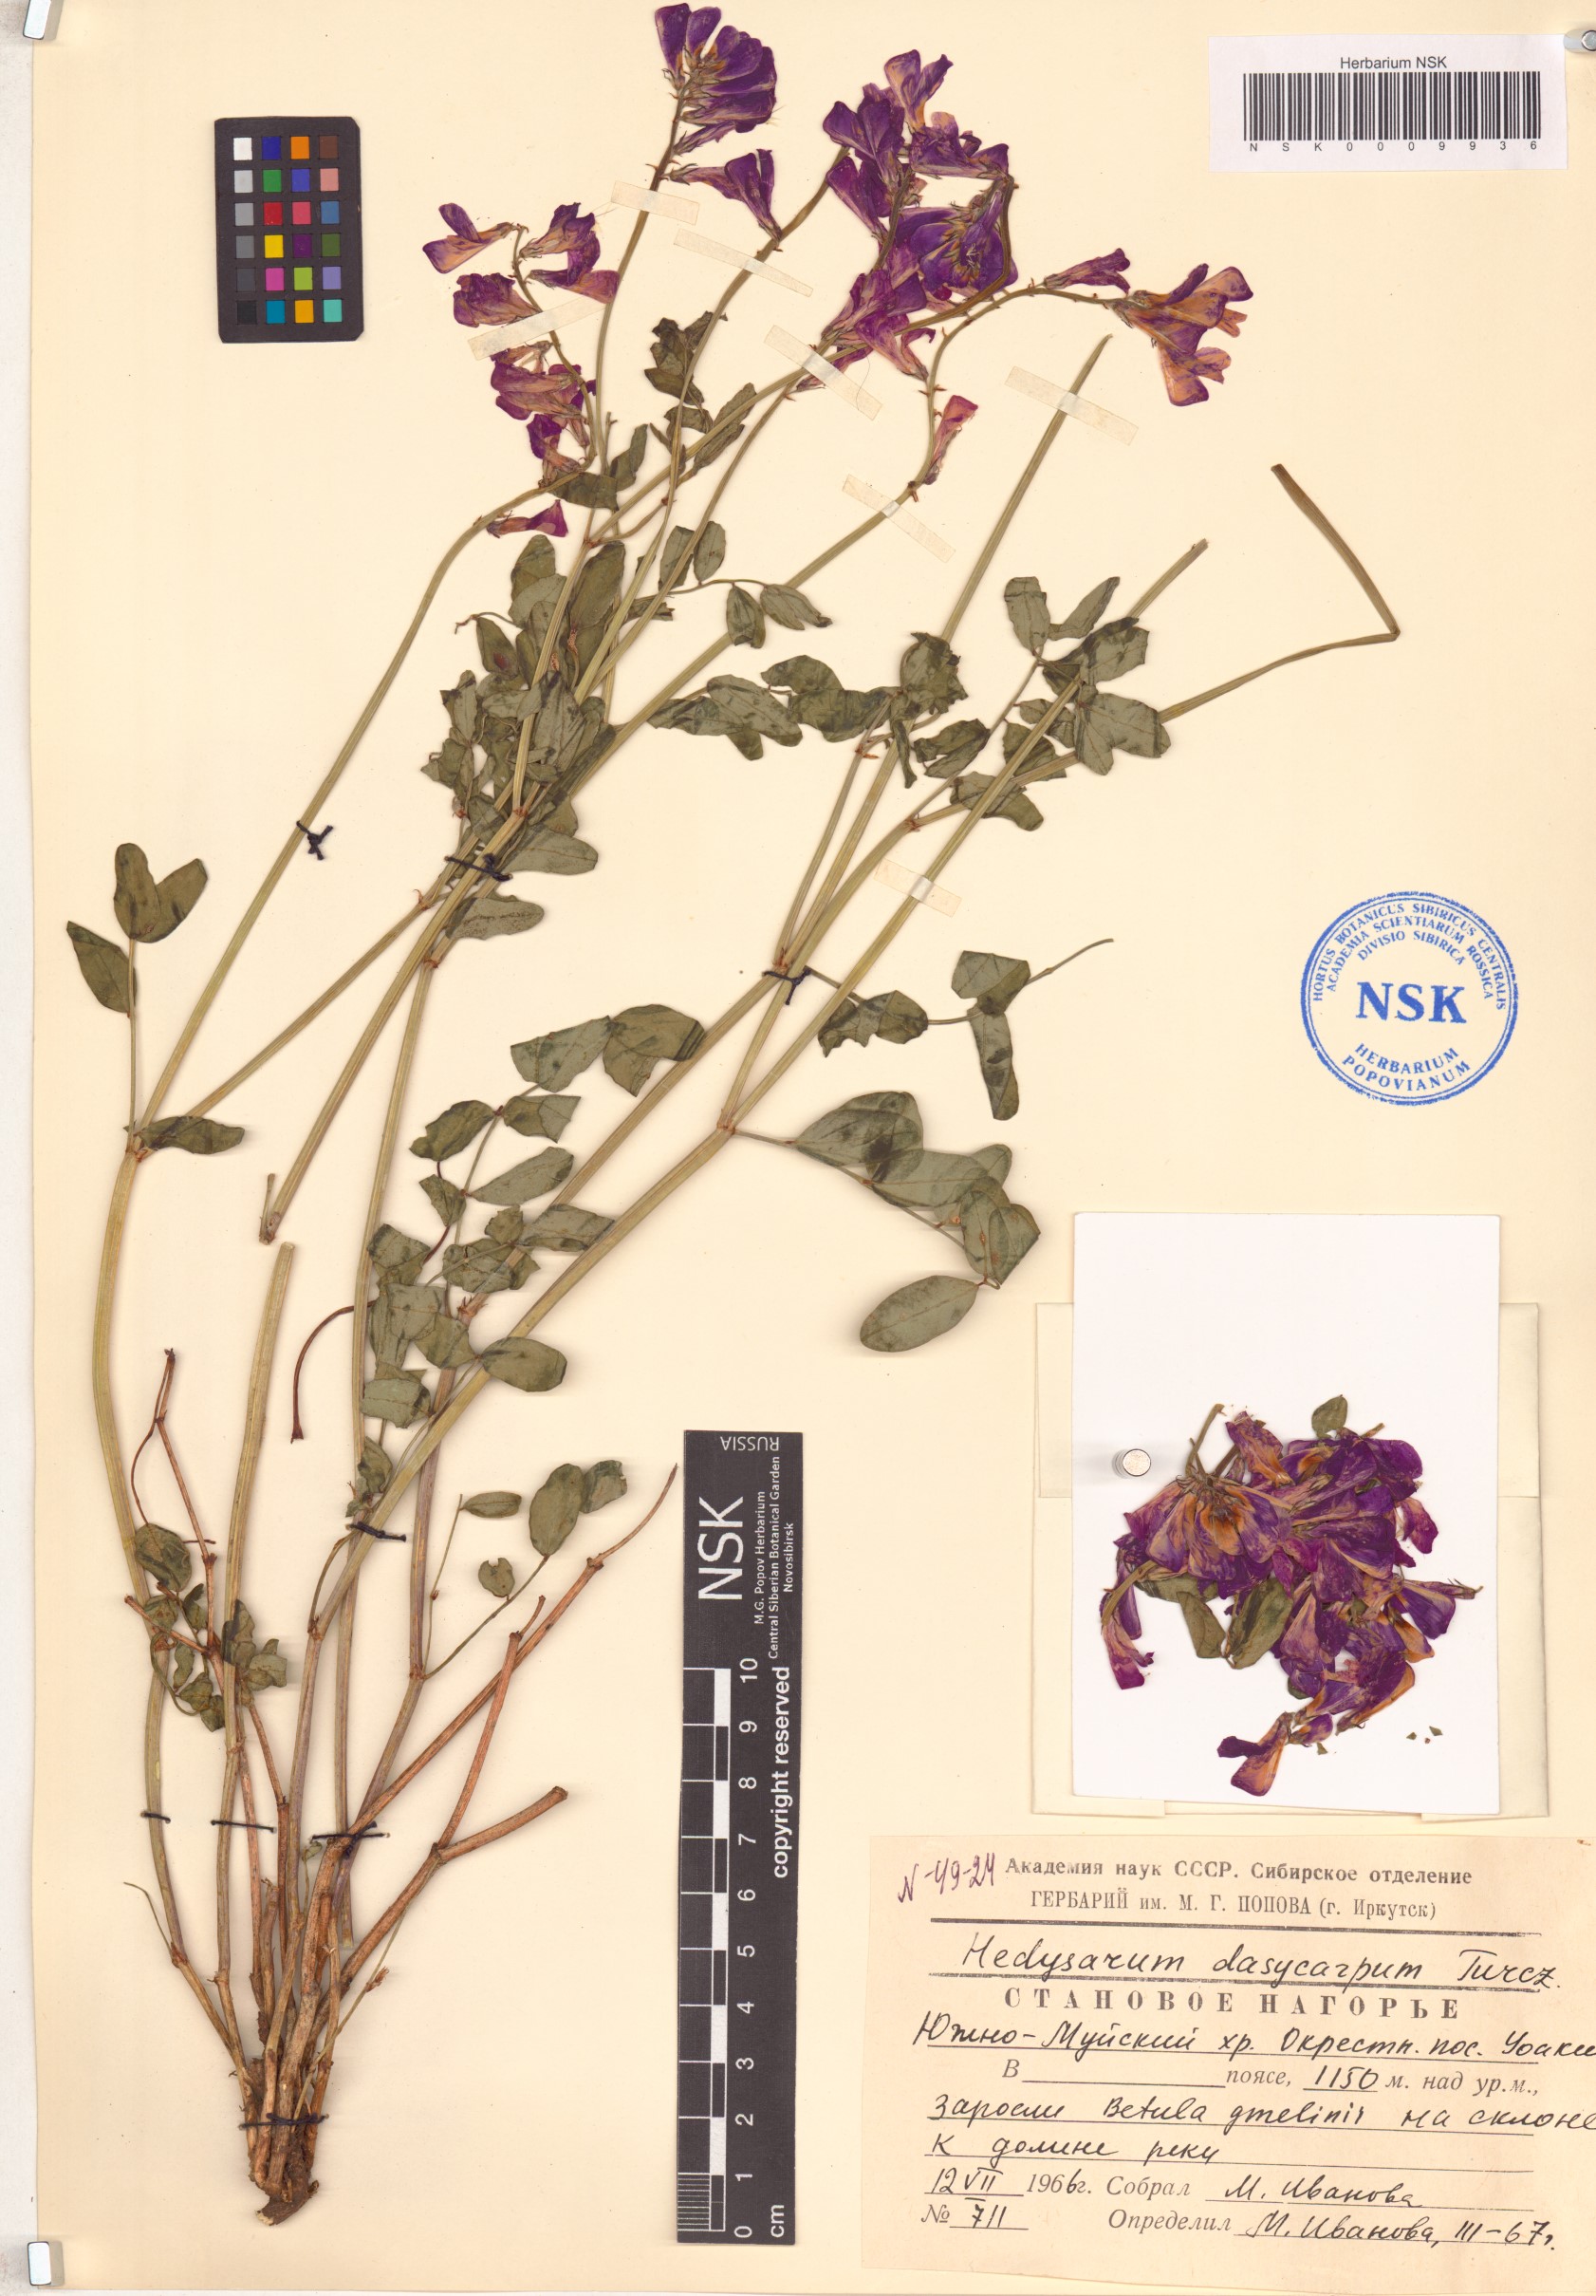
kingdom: Plantae
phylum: Tracheophyta
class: Magnoliopsida
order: Fabales
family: Fabaceae
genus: Hedysarum
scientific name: Hedysarum dasycarpum
